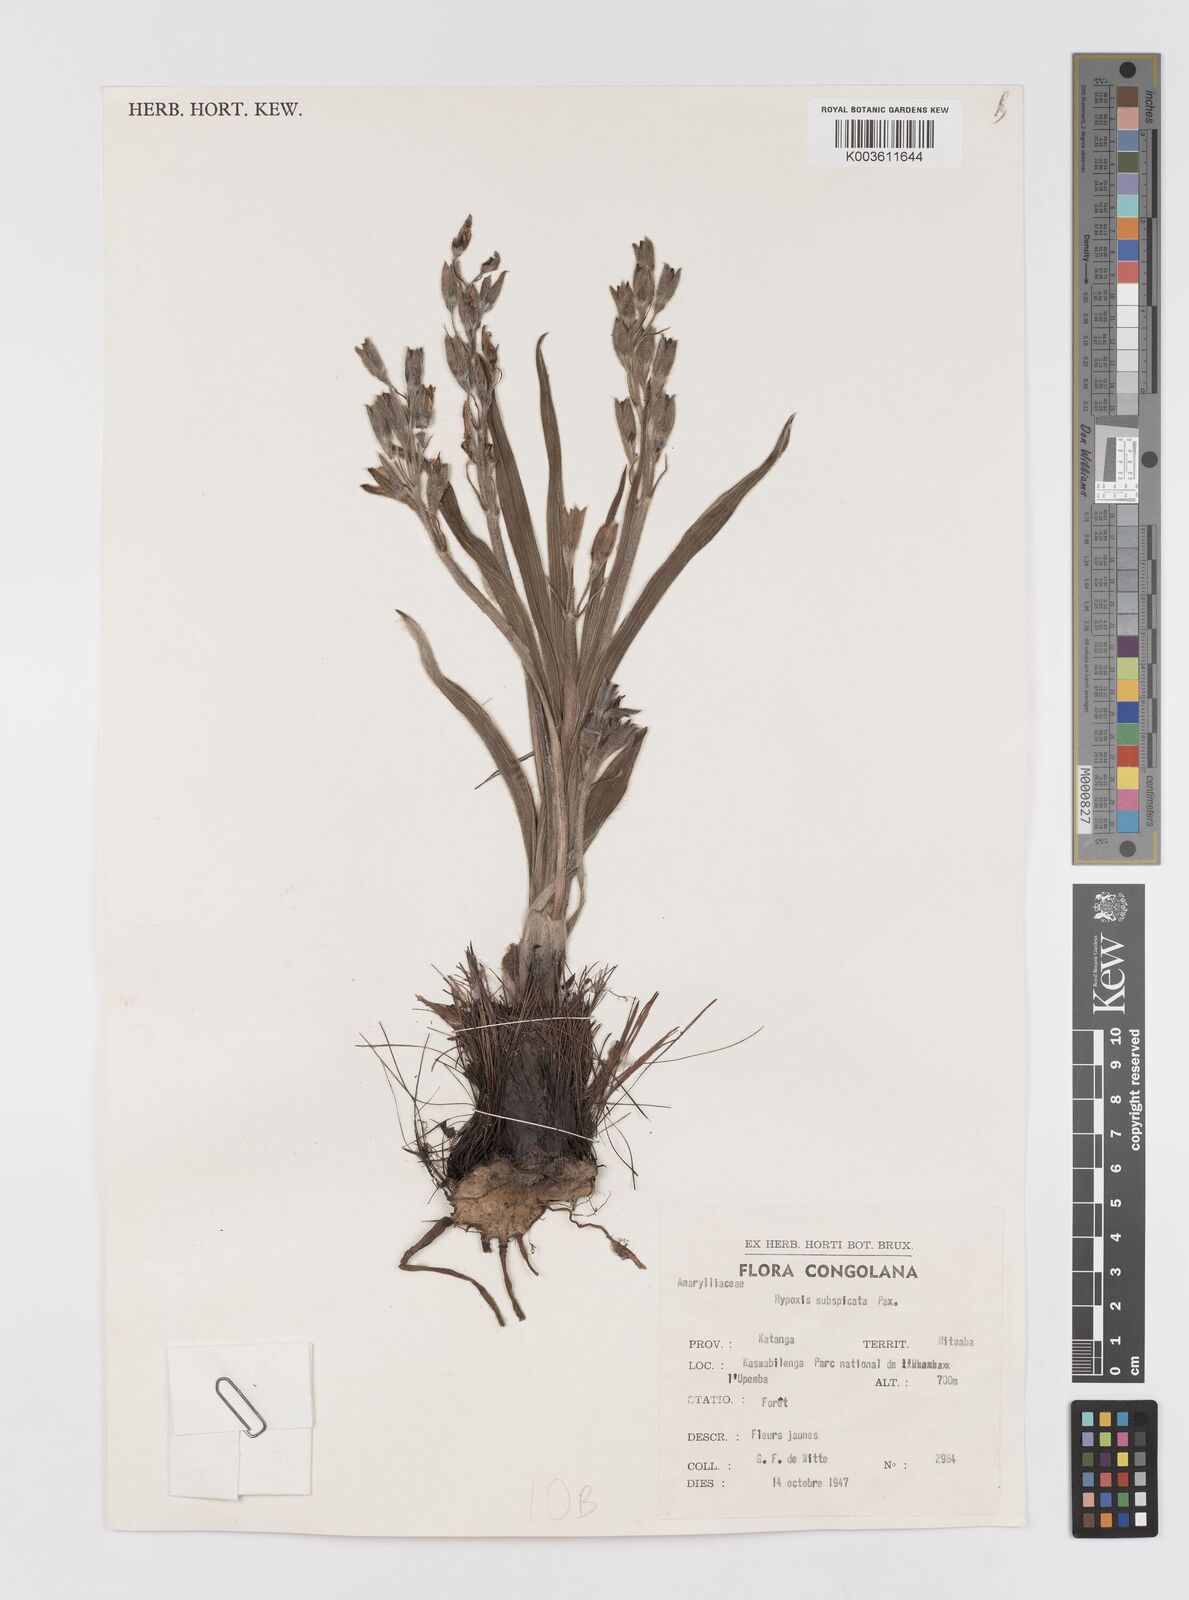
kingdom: Plantae
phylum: Tracheophyta
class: Liliopsida
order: Asparagales
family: Hypoxidaceae
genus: Hypoxis
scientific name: Hypoxis polystachya
